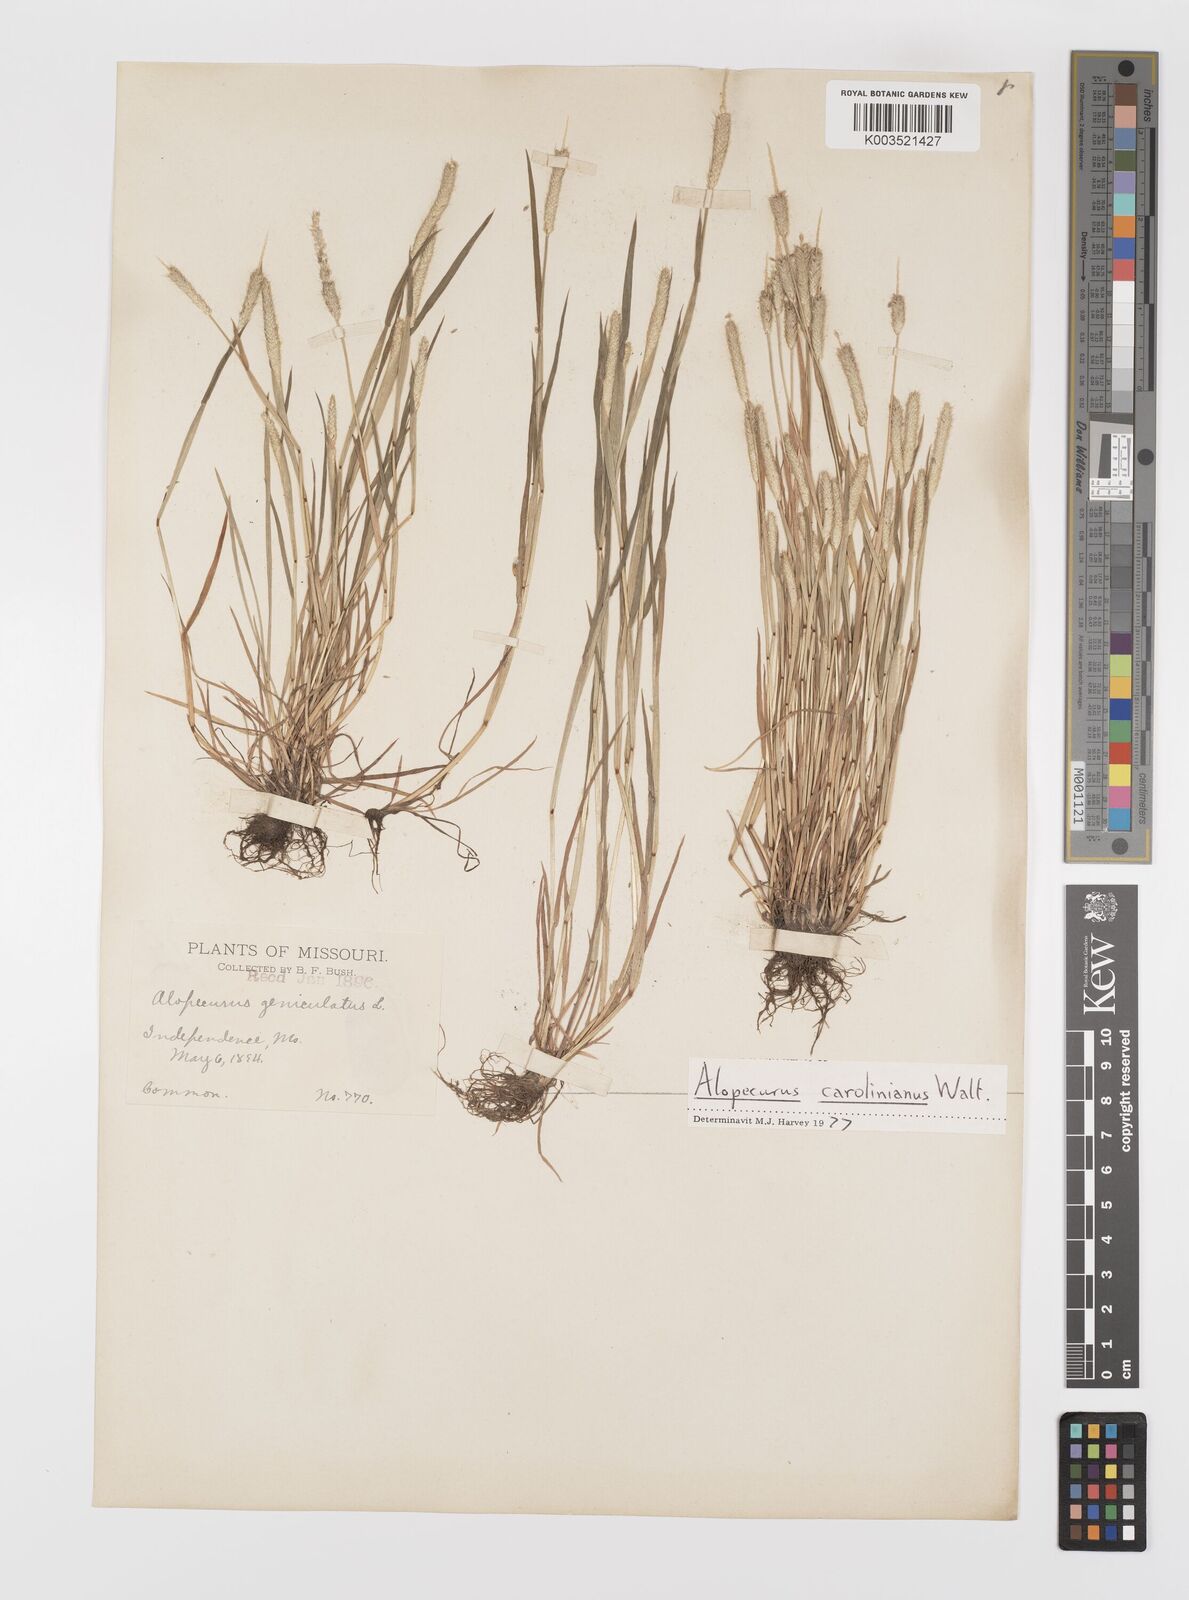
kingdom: Plantae
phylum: Tracheophyta
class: Liliopsida
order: Poales
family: Poaceae
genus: Alopecurus
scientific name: Alopecurus carolinianus
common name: Tufted foxtail
